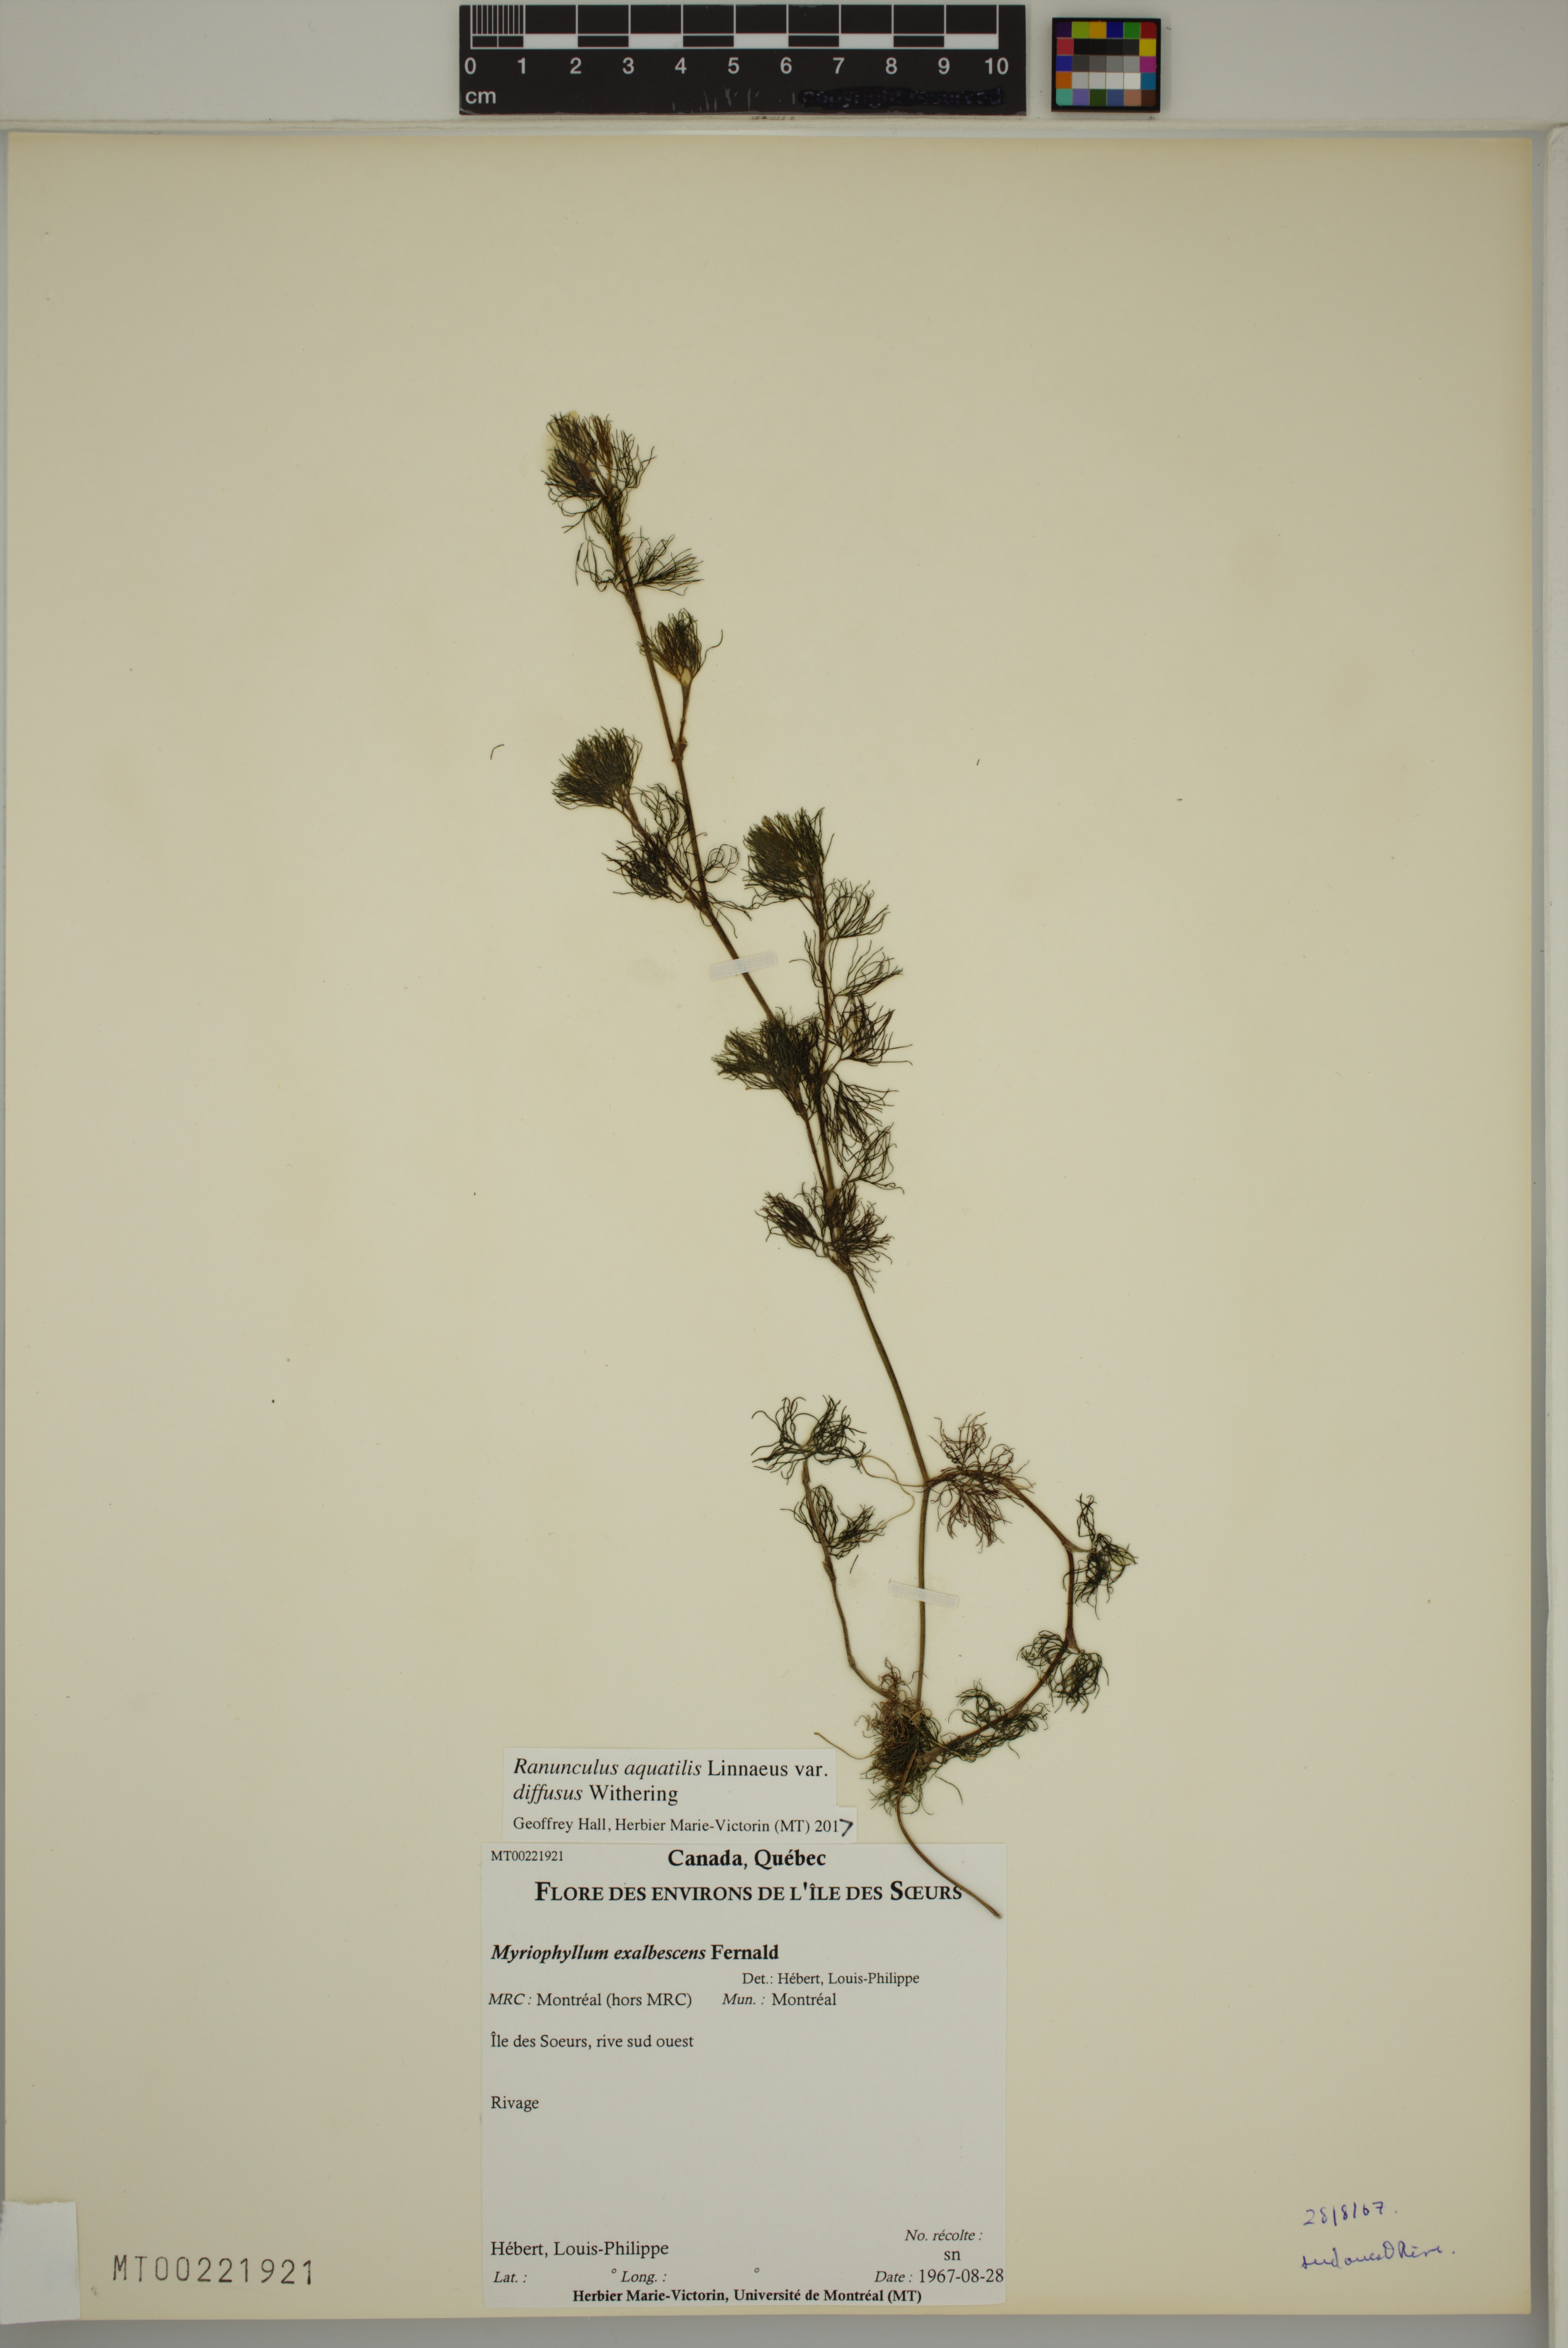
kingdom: Plantae
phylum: Tracheophyta
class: Magnoliopsida
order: Ranunculales
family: Ranunculaceae
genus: Ranunculus
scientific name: Ranunculus aquatilis
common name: Common water-crowfoot
